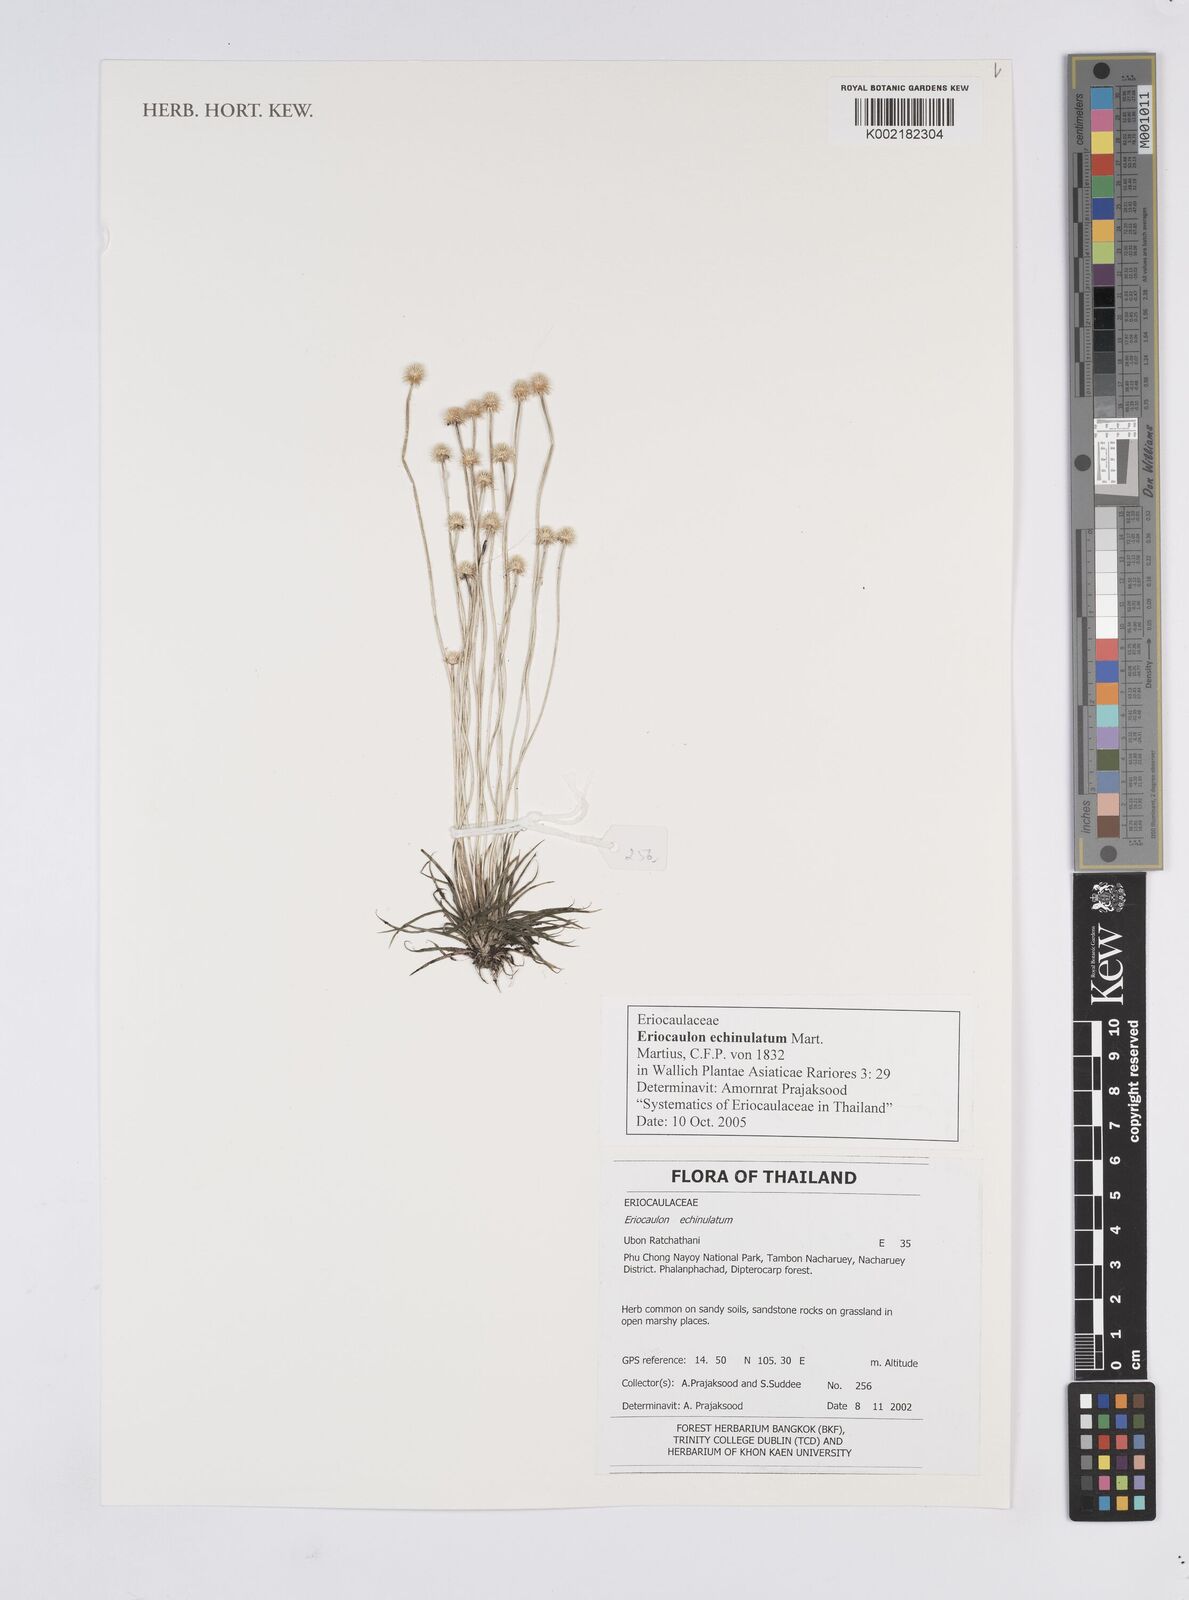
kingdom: Plantae
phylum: Tracheophyta
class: Liliopsida
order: Poales
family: Eriocaulaceae
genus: Eriocaulon
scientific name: Eriocaulon echinulatum
